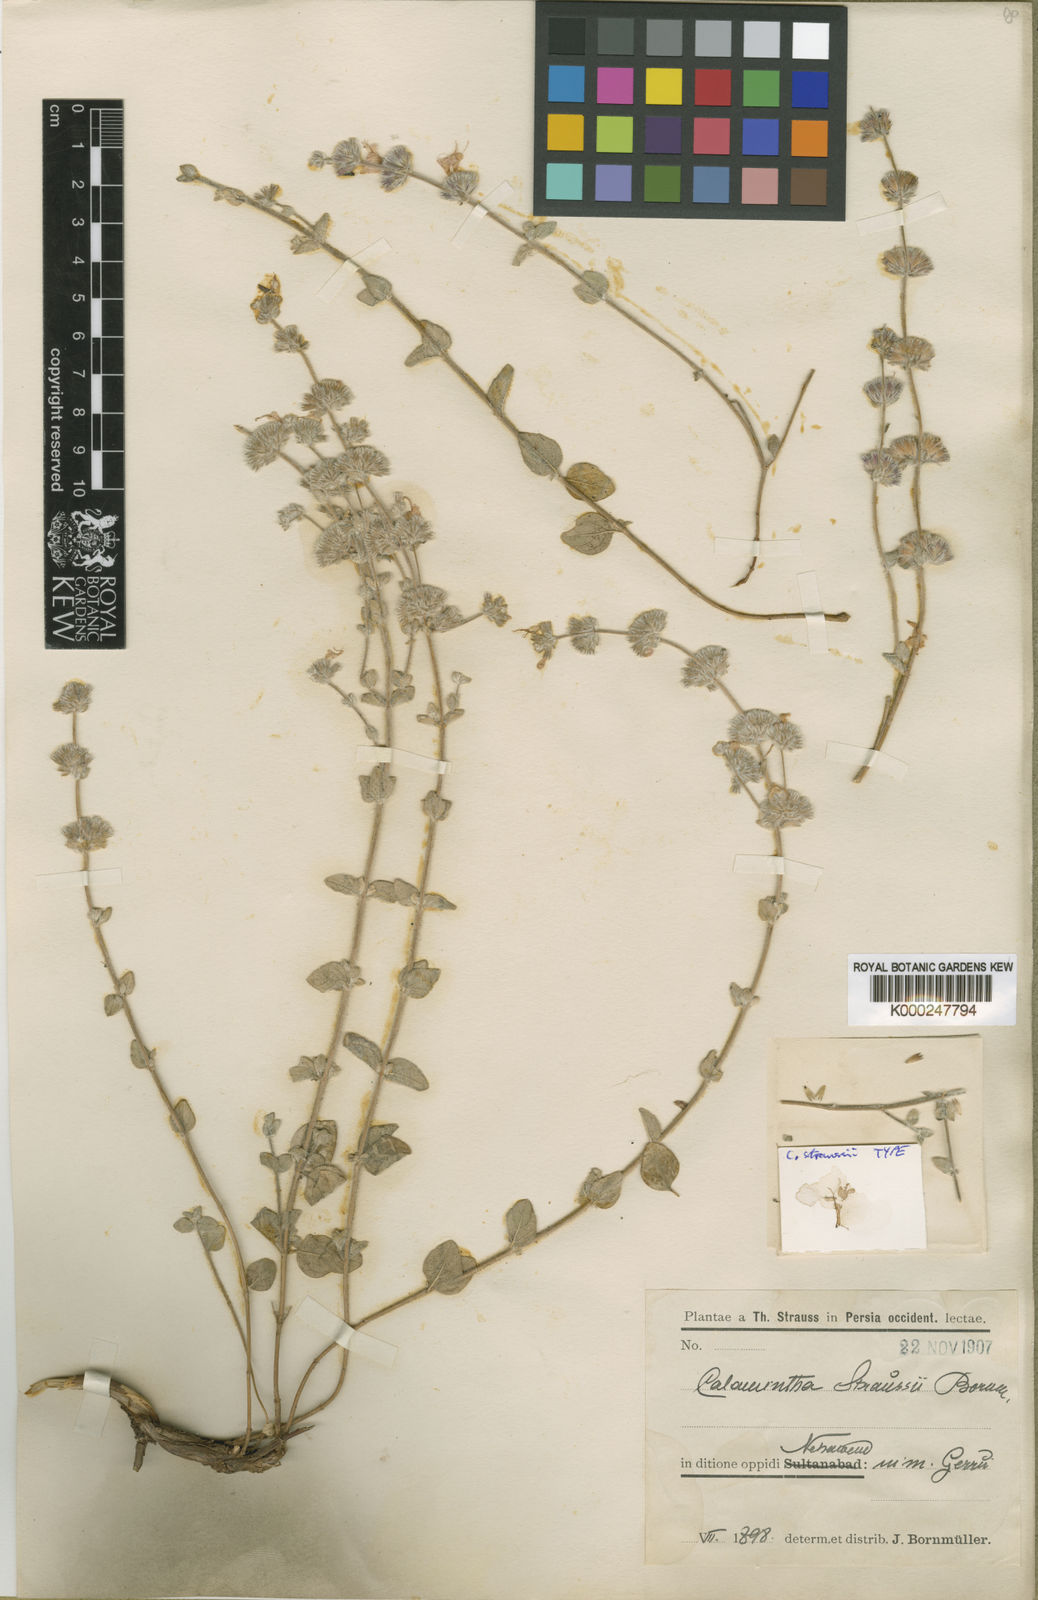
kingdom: Plantae
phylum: Tracheophyta
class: Magnoliopsida
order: Lamiales
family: Lamiaceae
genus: Cyclotrichium
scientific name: Cyclotrichium straussii
